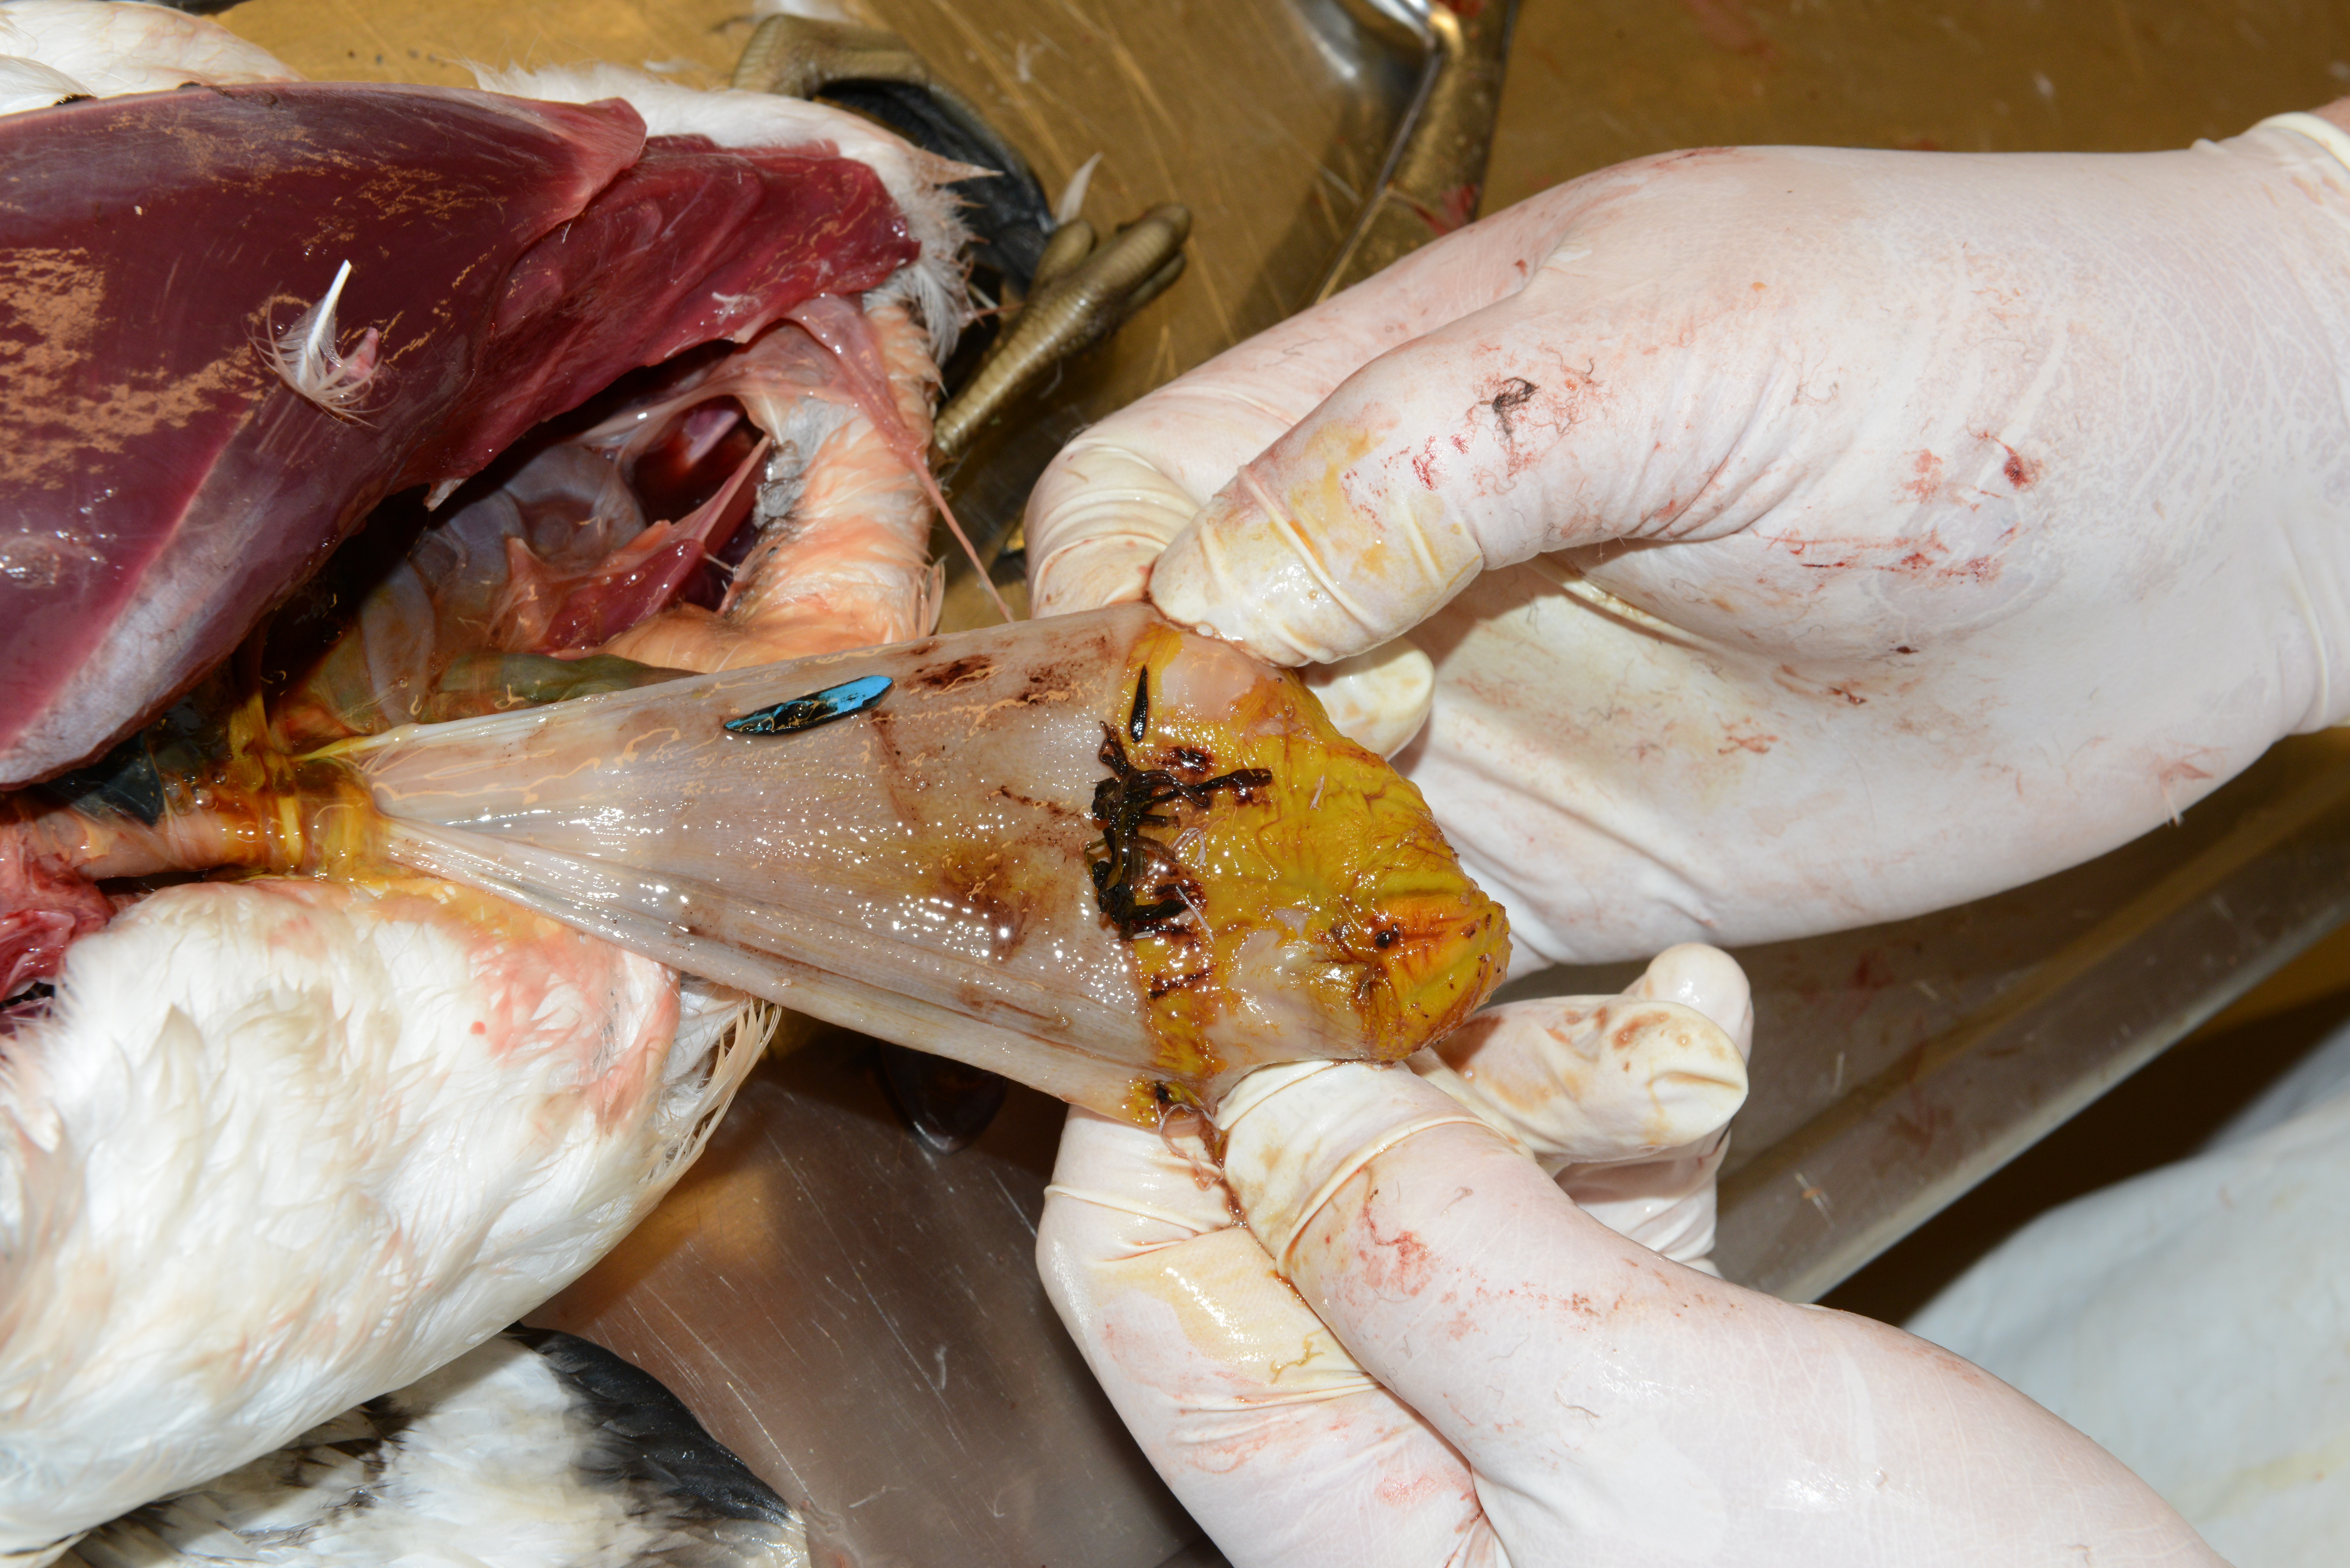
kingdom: Animalia
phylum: Chordata
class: Aves
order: Charadriiformes
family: Alcidae
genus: Uria
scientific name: Uria aalge
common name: Common murre
